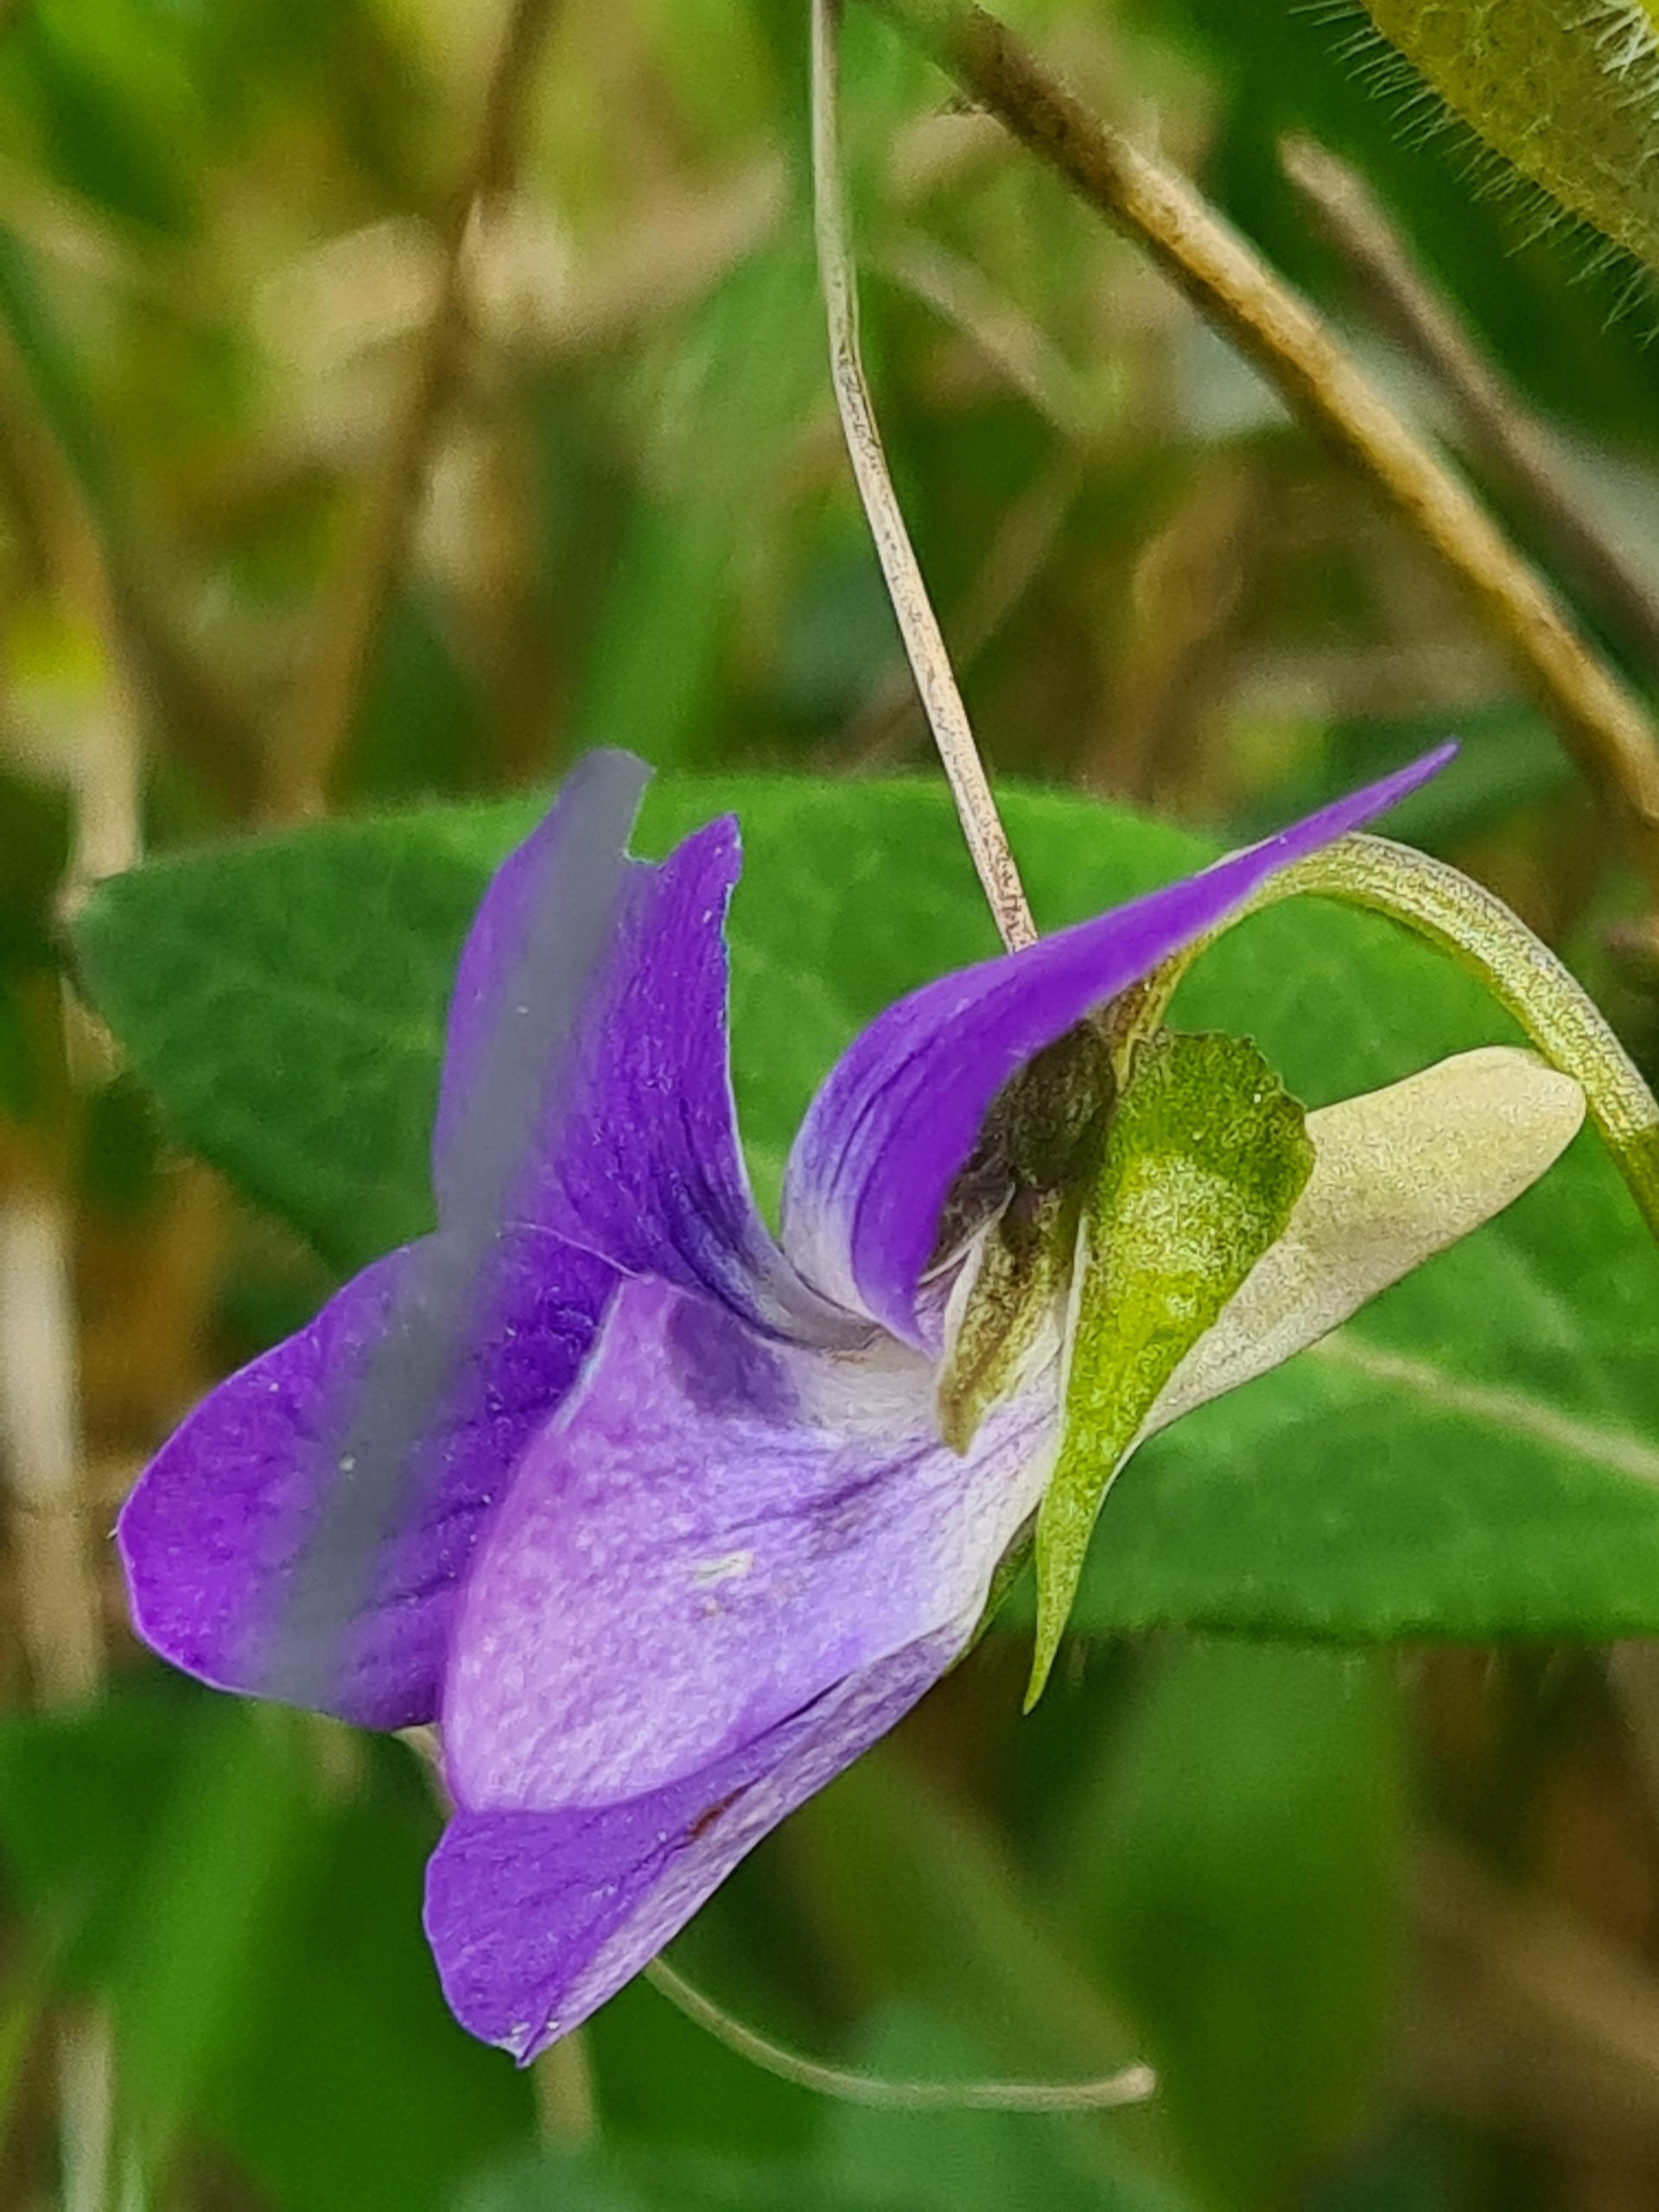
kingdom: Plantae
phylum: Tracheophyta
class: Magnoliopsida
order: Malpighiales
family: Violaceae
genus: Viola
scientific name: Viola canina
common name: Hunde-viol
